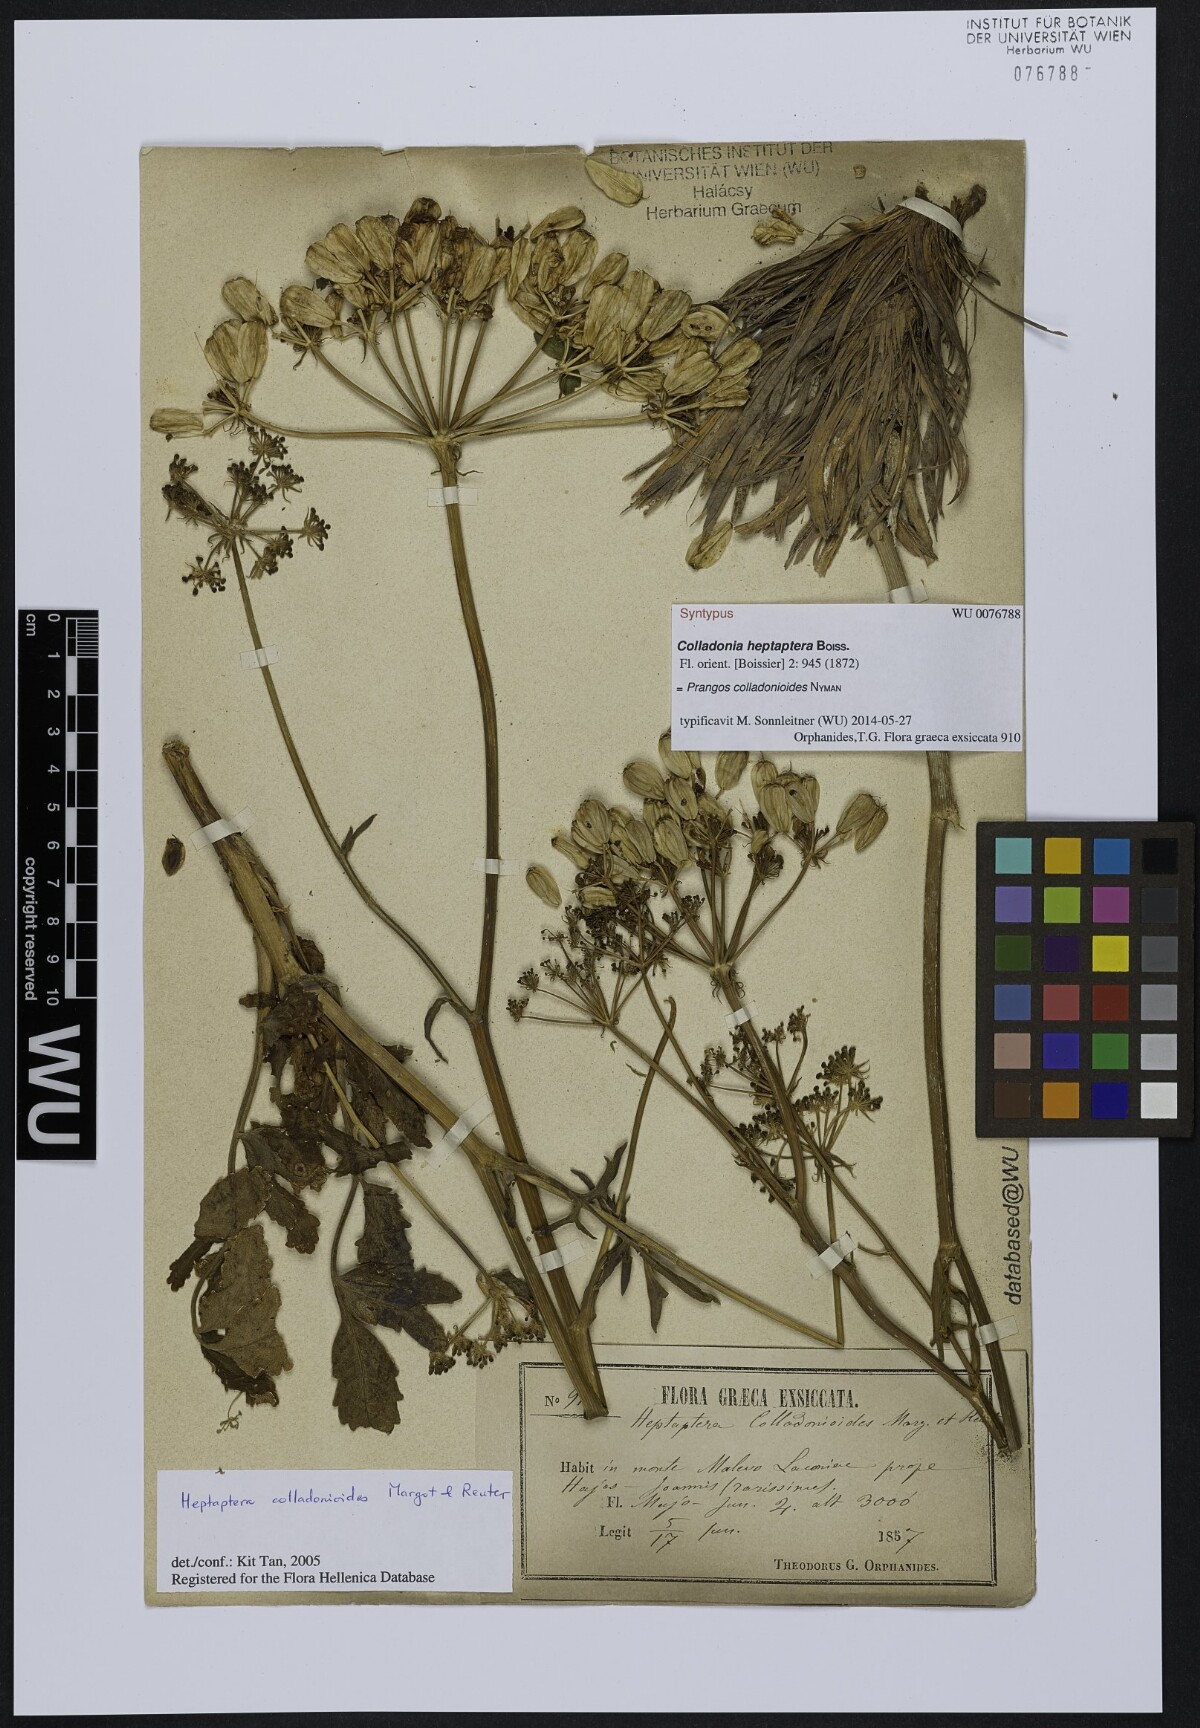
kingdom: Plantae
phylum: Tracheophyta
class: Magnoliopsida
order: Apiales
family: Apiaceae
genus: Heptaptera
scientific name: Heptaptera colladonioides
